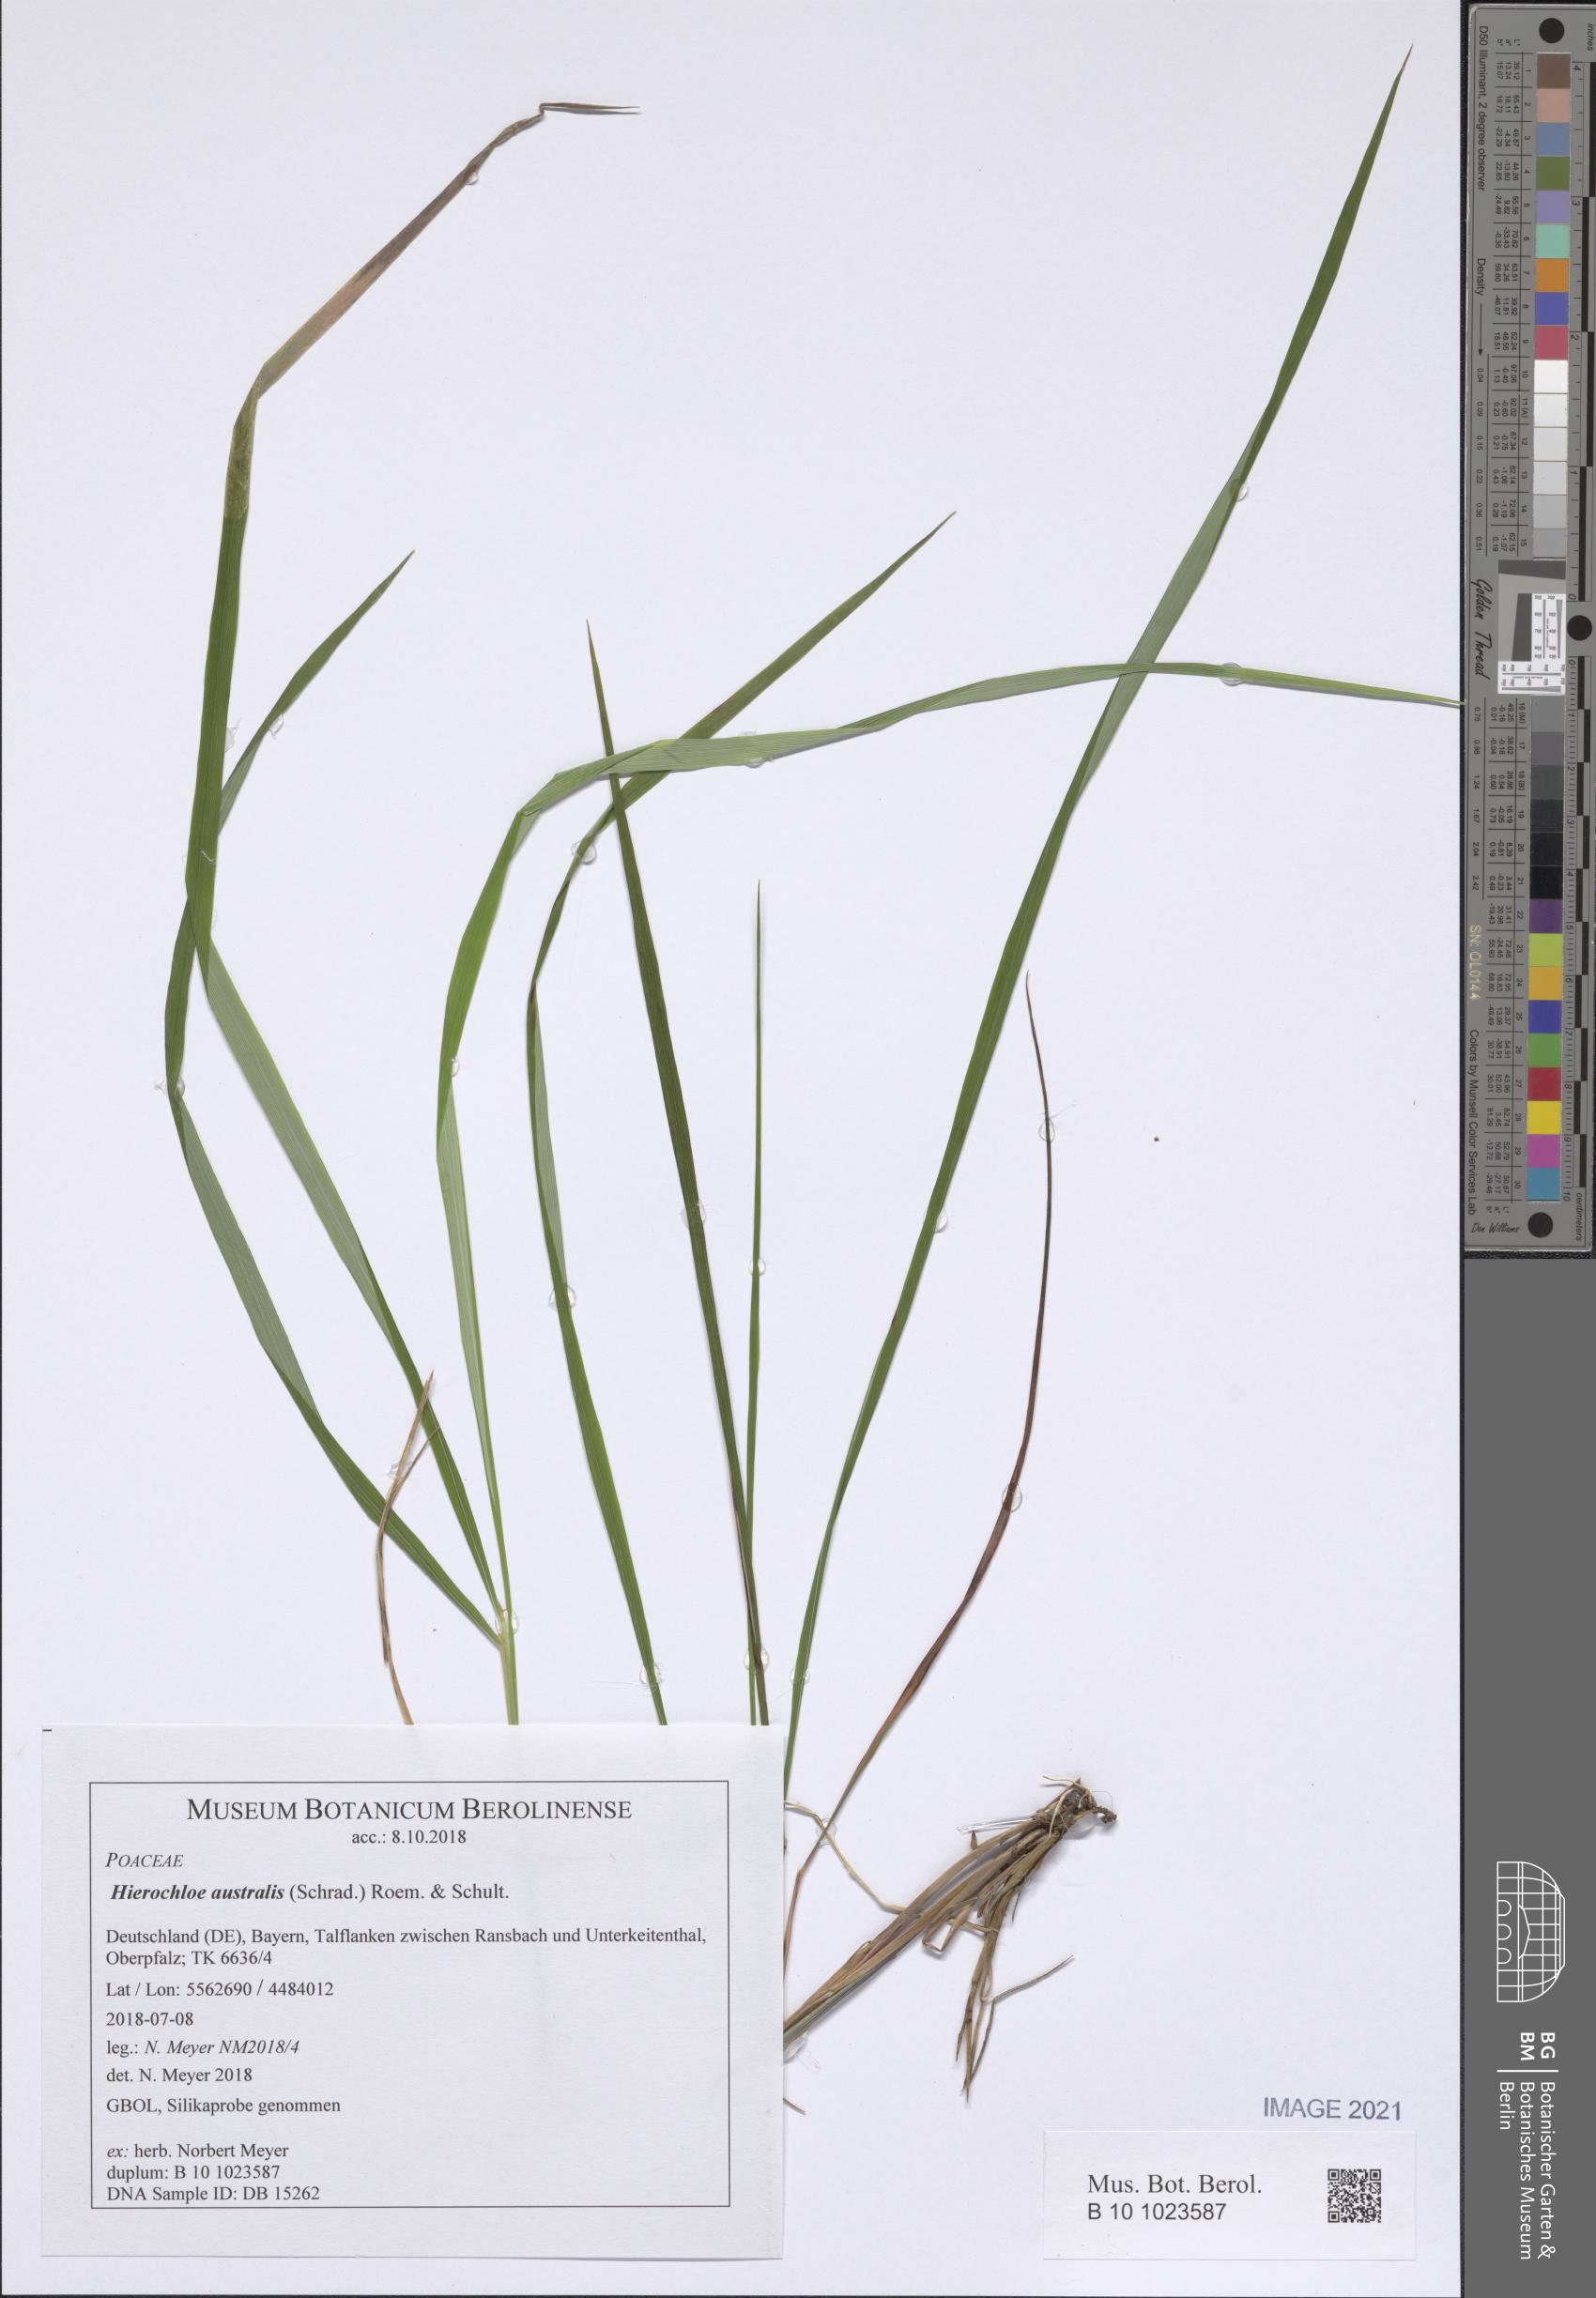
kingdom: Plantae
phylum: Tracheophyta
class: Liliopsida
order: Poales
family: Poaceae
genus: Anthoxanthum
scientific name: Anthoxanthum australe
